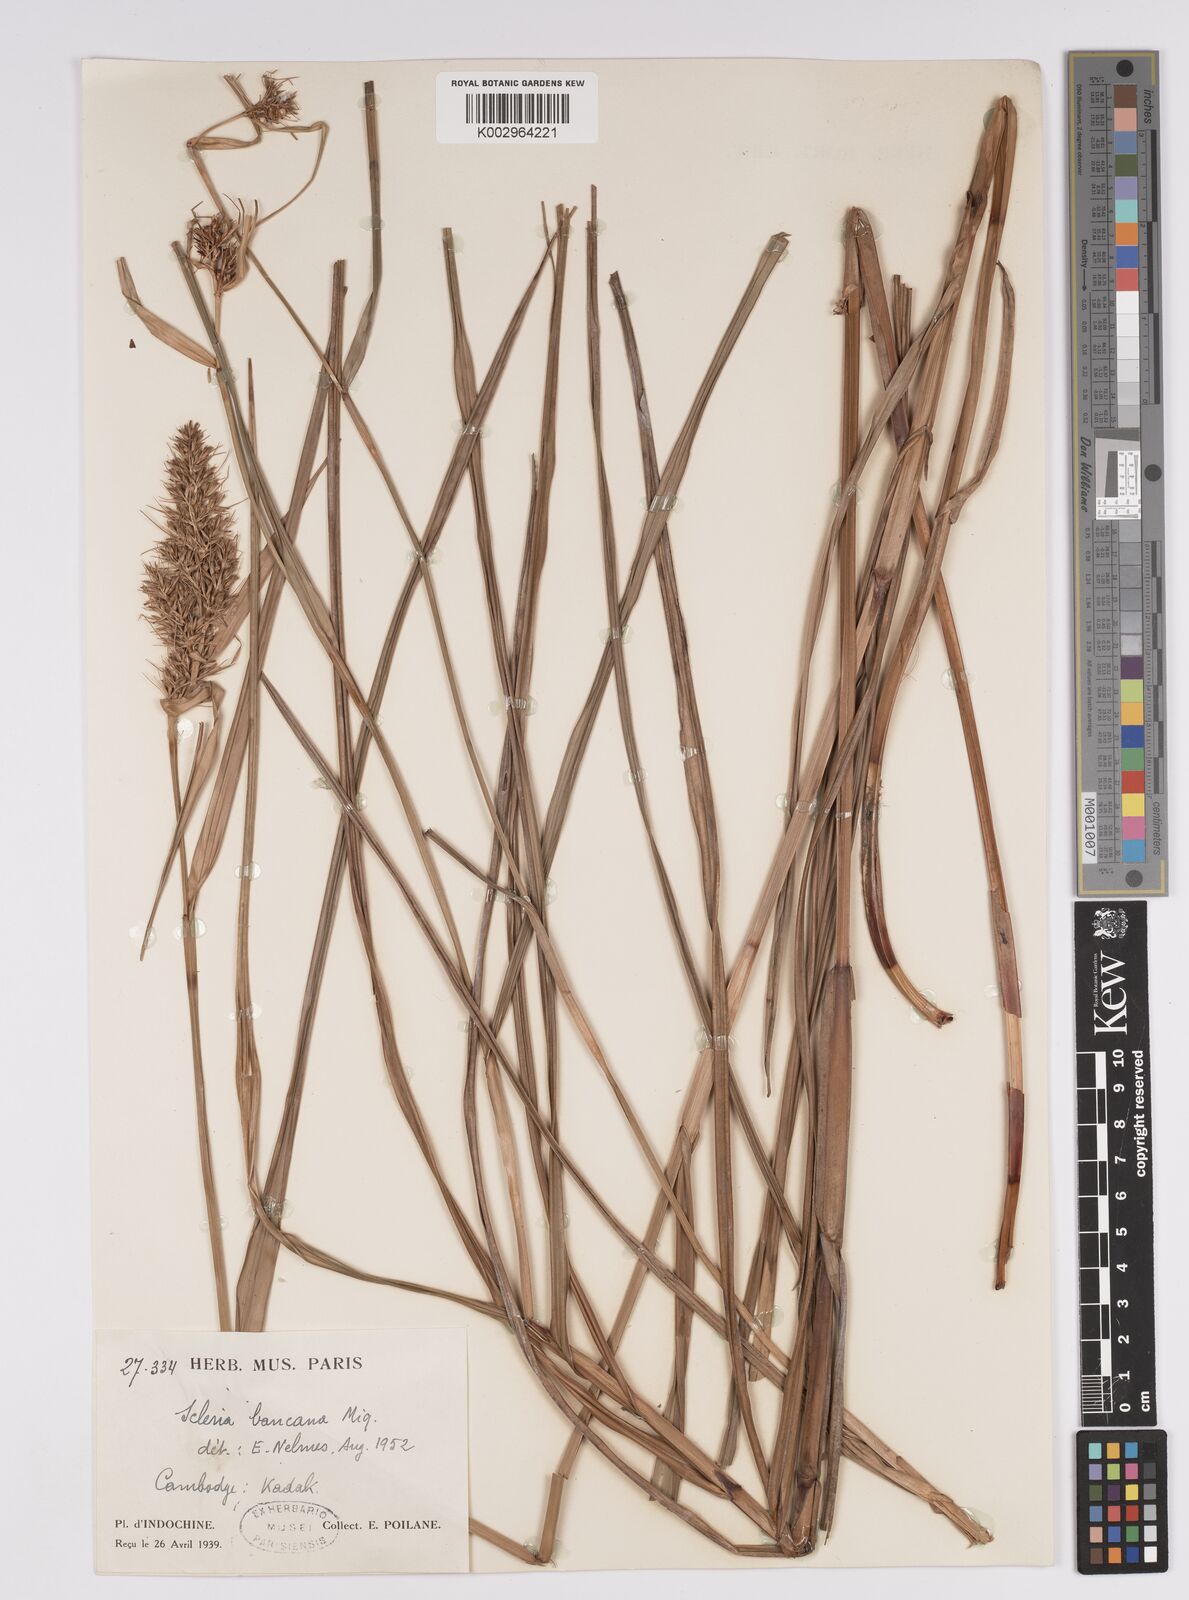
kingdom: Plantae
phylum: Tracheophyta
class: Liliopsida
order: Poales
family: Cyperaceae
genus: Scleria
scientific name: Scleria ciliaris
